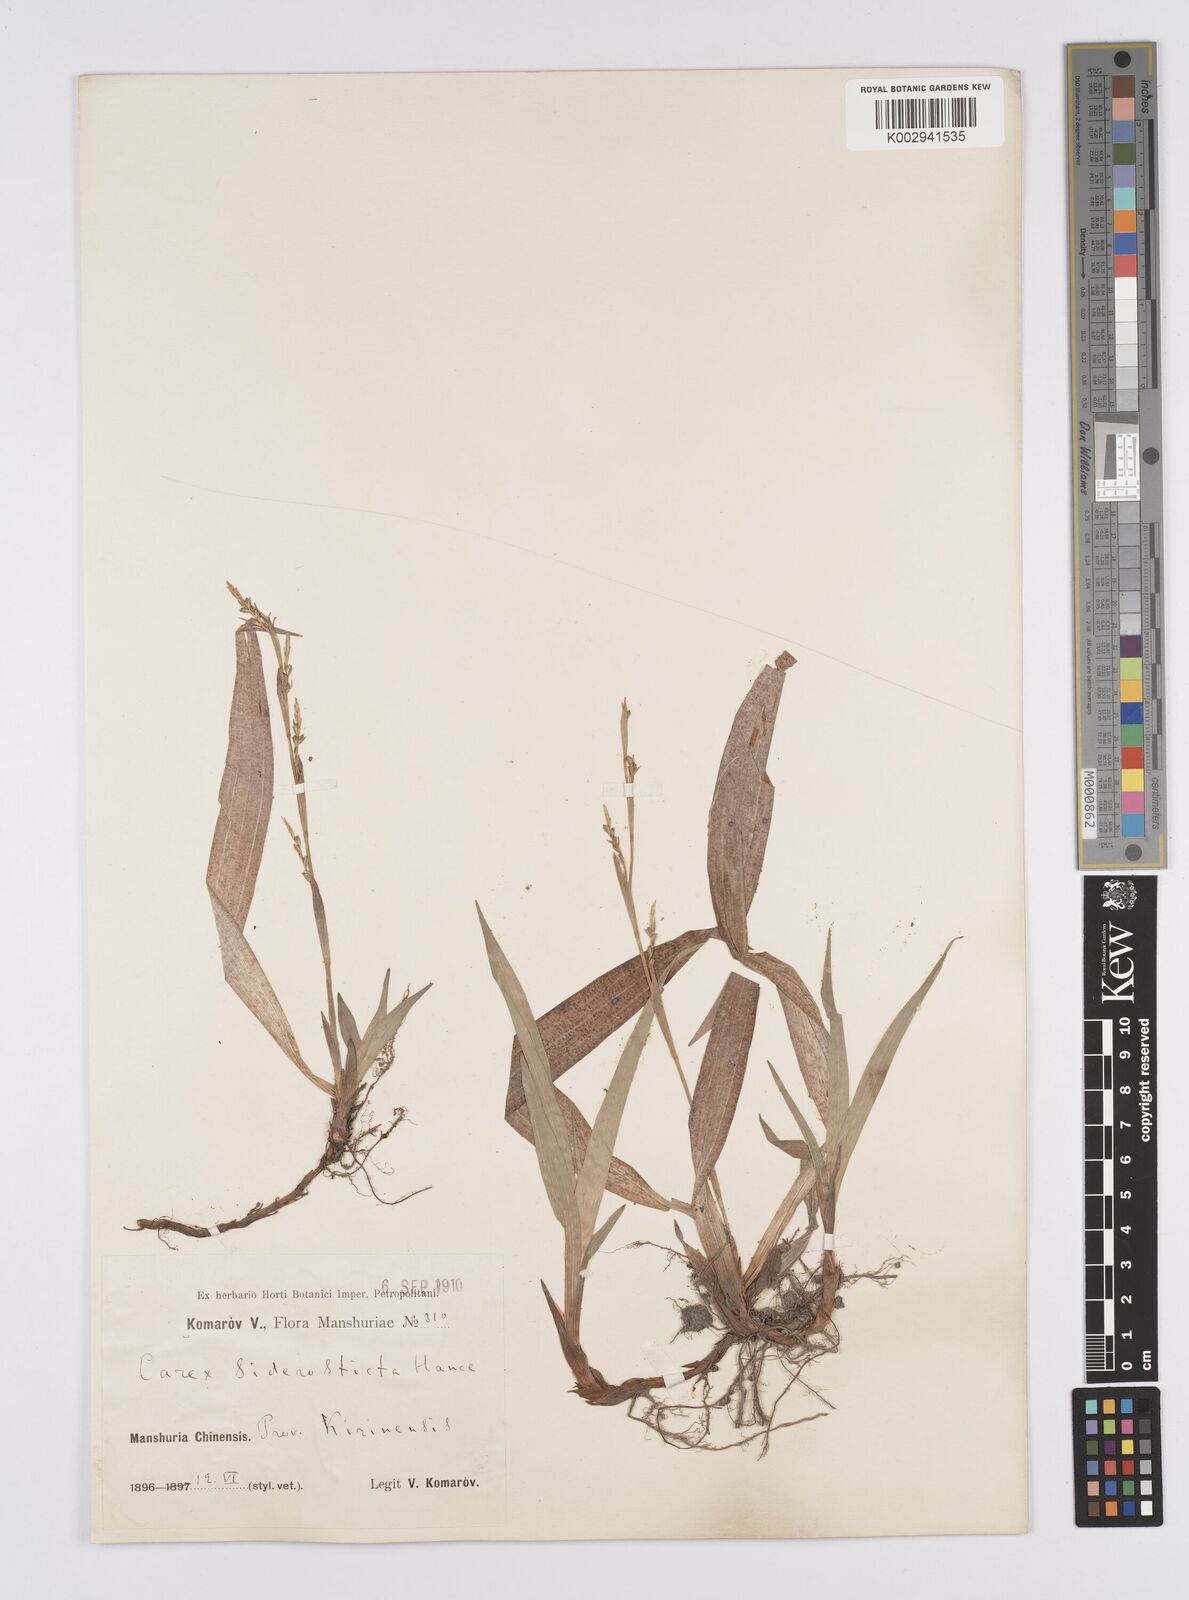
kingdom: Plantae
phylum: Tracheophyta
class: Liliopsida
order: Poales
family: Cyperaceae
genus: Carex
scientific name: Carex siderosticta
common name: Broadleaf sedge
